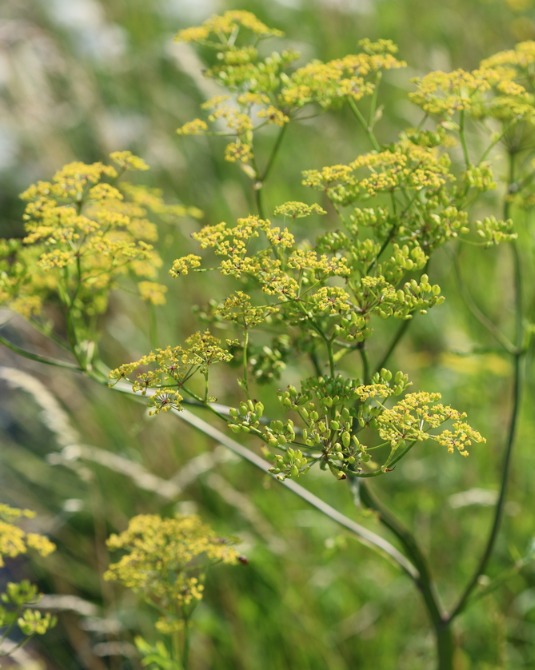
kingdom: Plantae
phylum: Tracheophyta
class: Magnoliopsida
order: Apiales
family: Apiaceae
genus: Pastinaca
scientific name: Pastinaca sativa
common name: Pastinak
